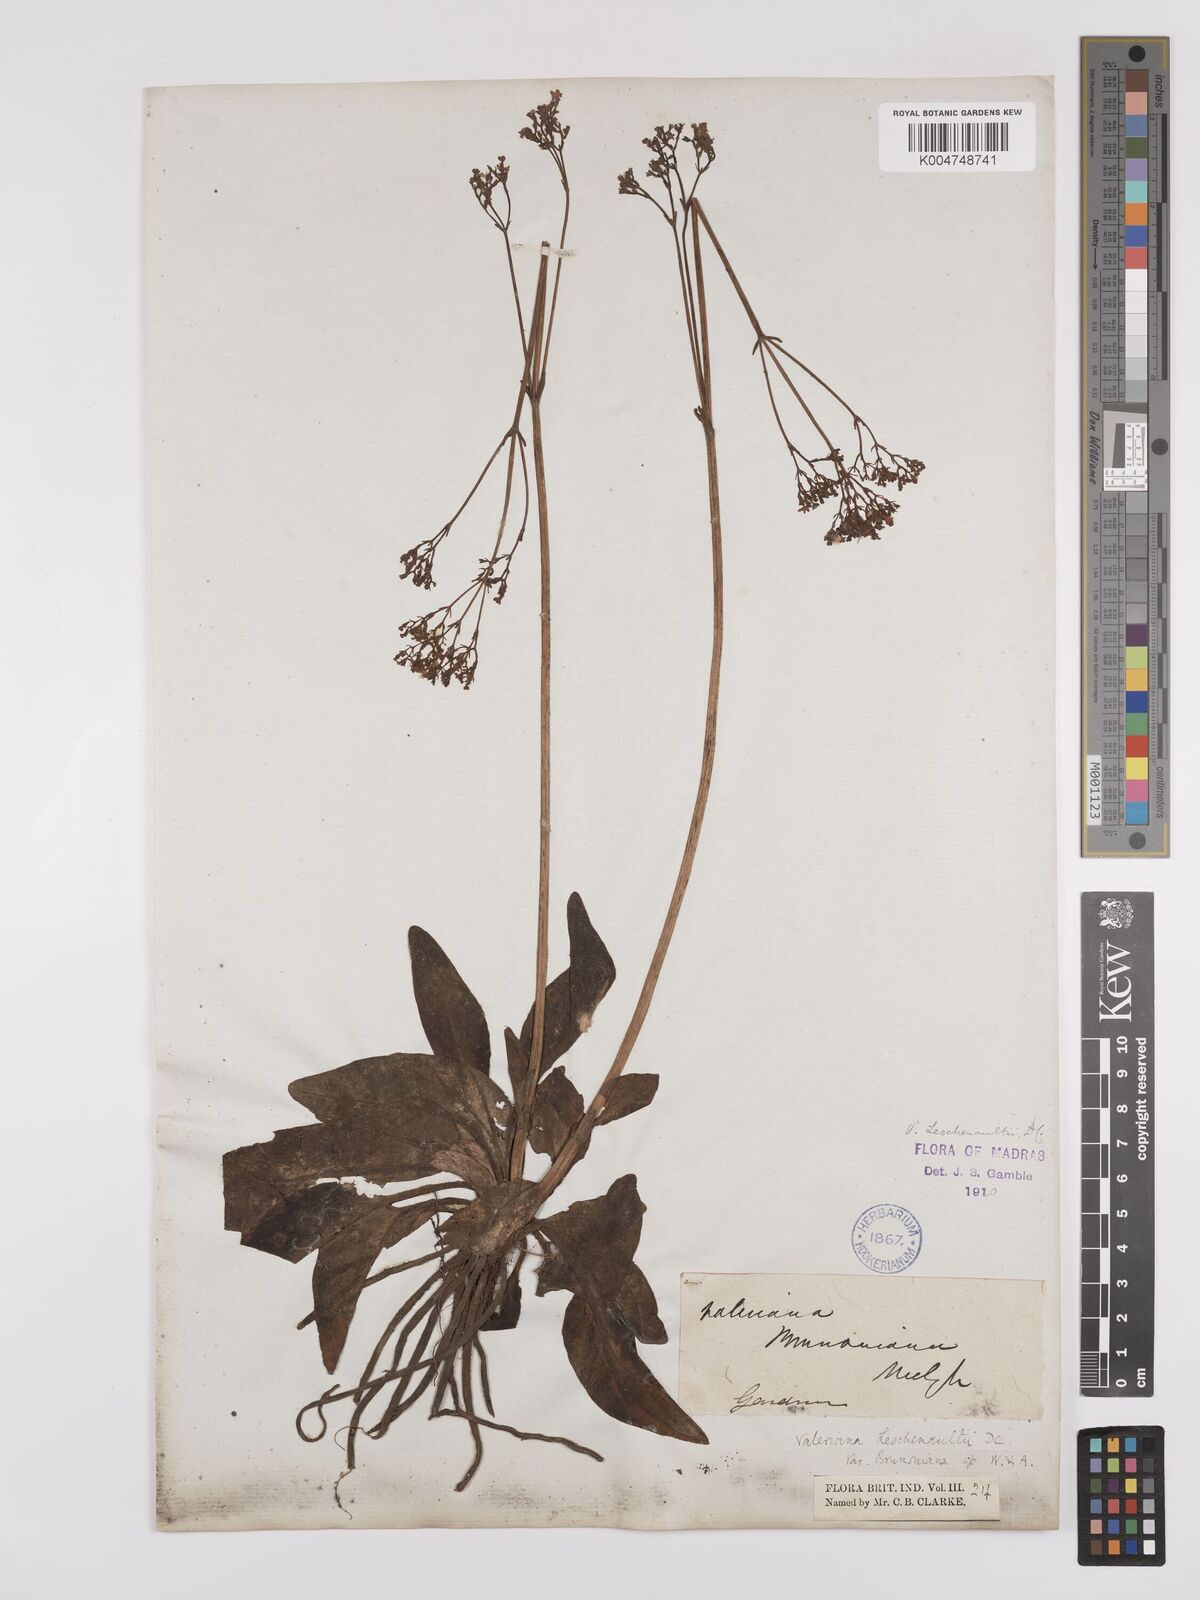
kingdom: Plantae
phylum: Tracheophyta
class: Magnoliopsida
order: Dipsacales
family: Caprifoliaceae
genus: Valeriana
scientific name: Valeriana leschenaultii
